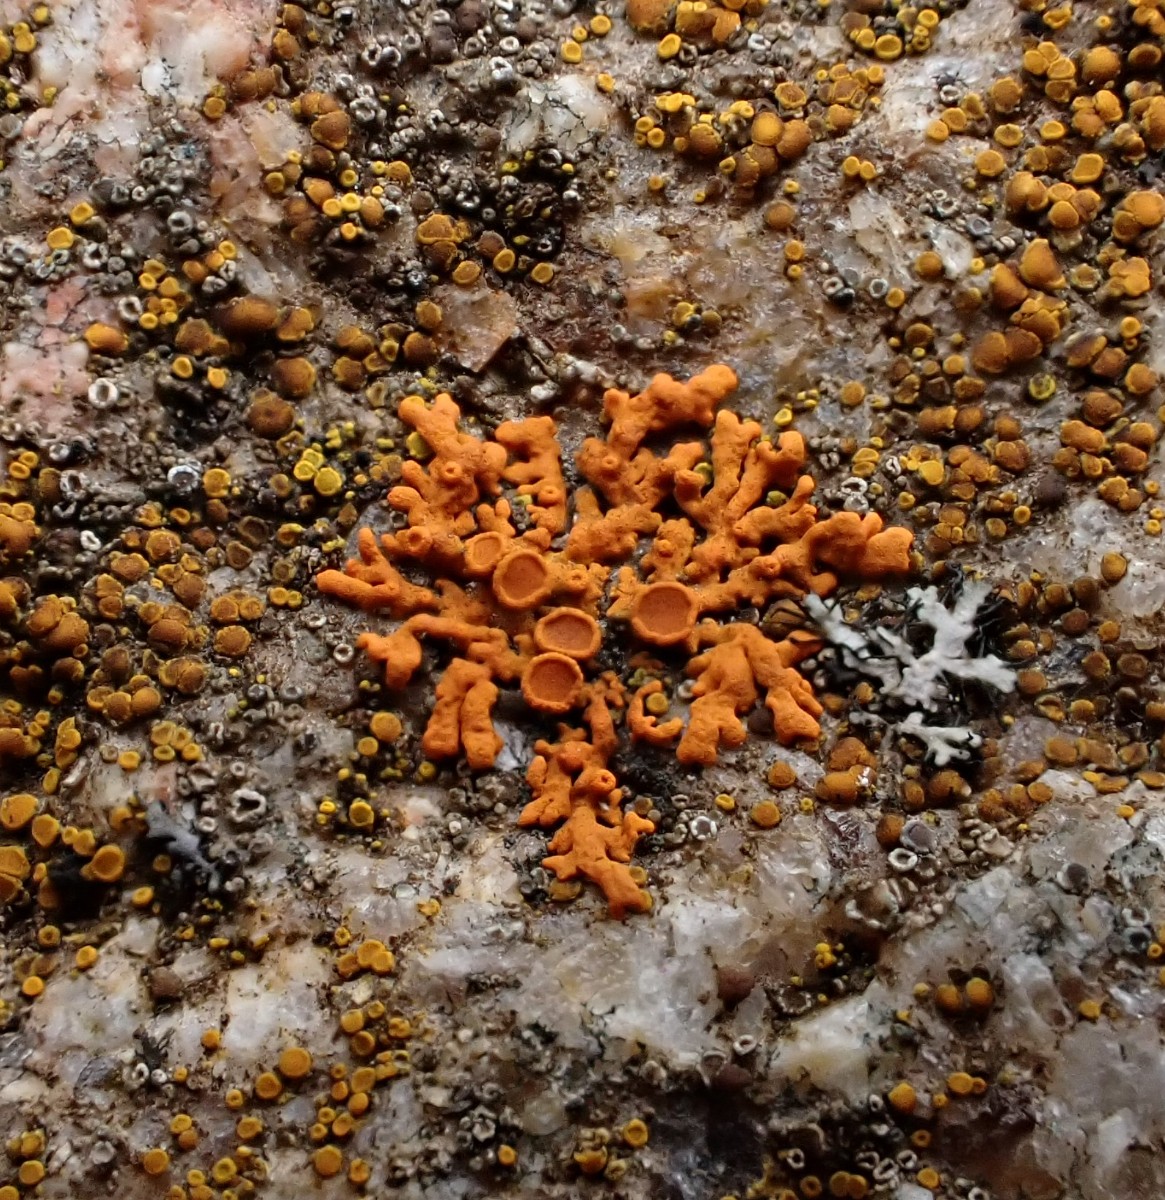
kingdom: Fungi
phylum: Ascomycota
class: Lecanoromycetes
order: Teloschistales
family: Teloschistaceae
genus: Xanthoria
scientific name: Xanthoria elegans
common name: fjeld-væggelav
